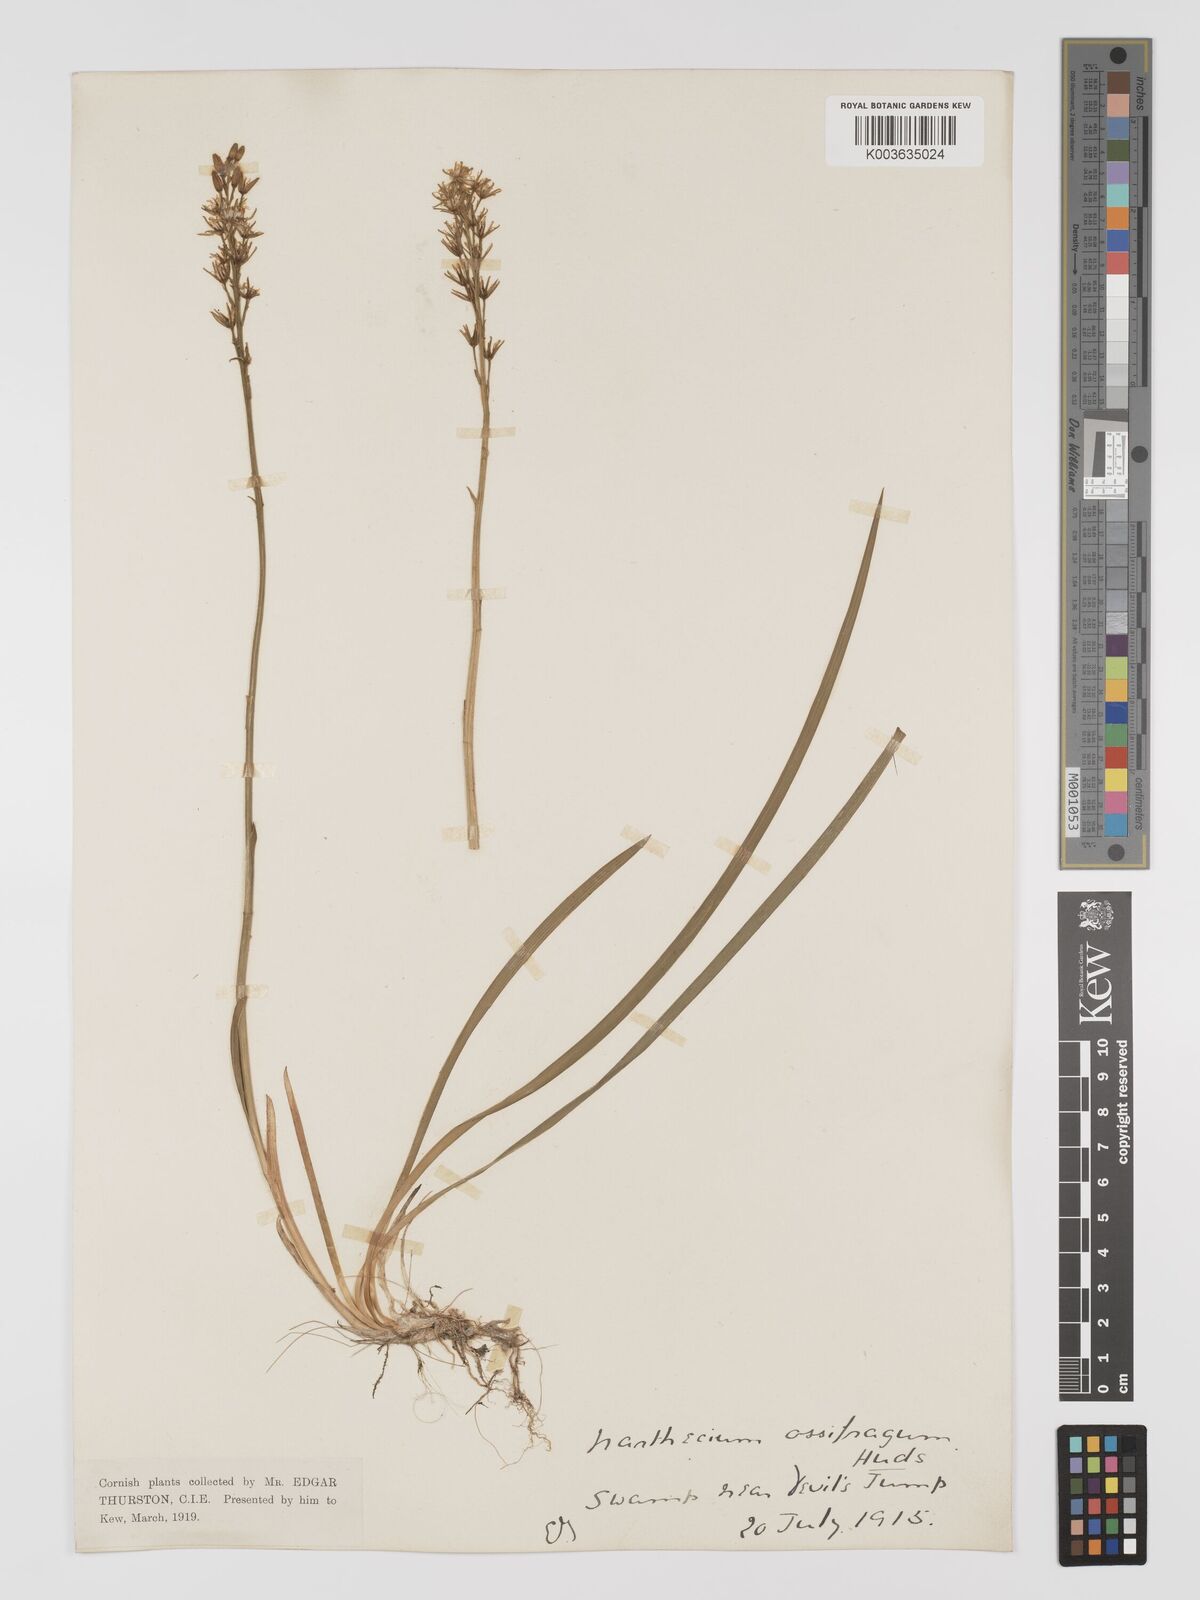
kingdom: Plantae
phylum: Tracheophyta
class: Liliopsida
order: Dioscoreales
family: Nartheciaceae
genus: Narthecium
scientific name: Narthecium ossifragum
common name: Bog asphodel
